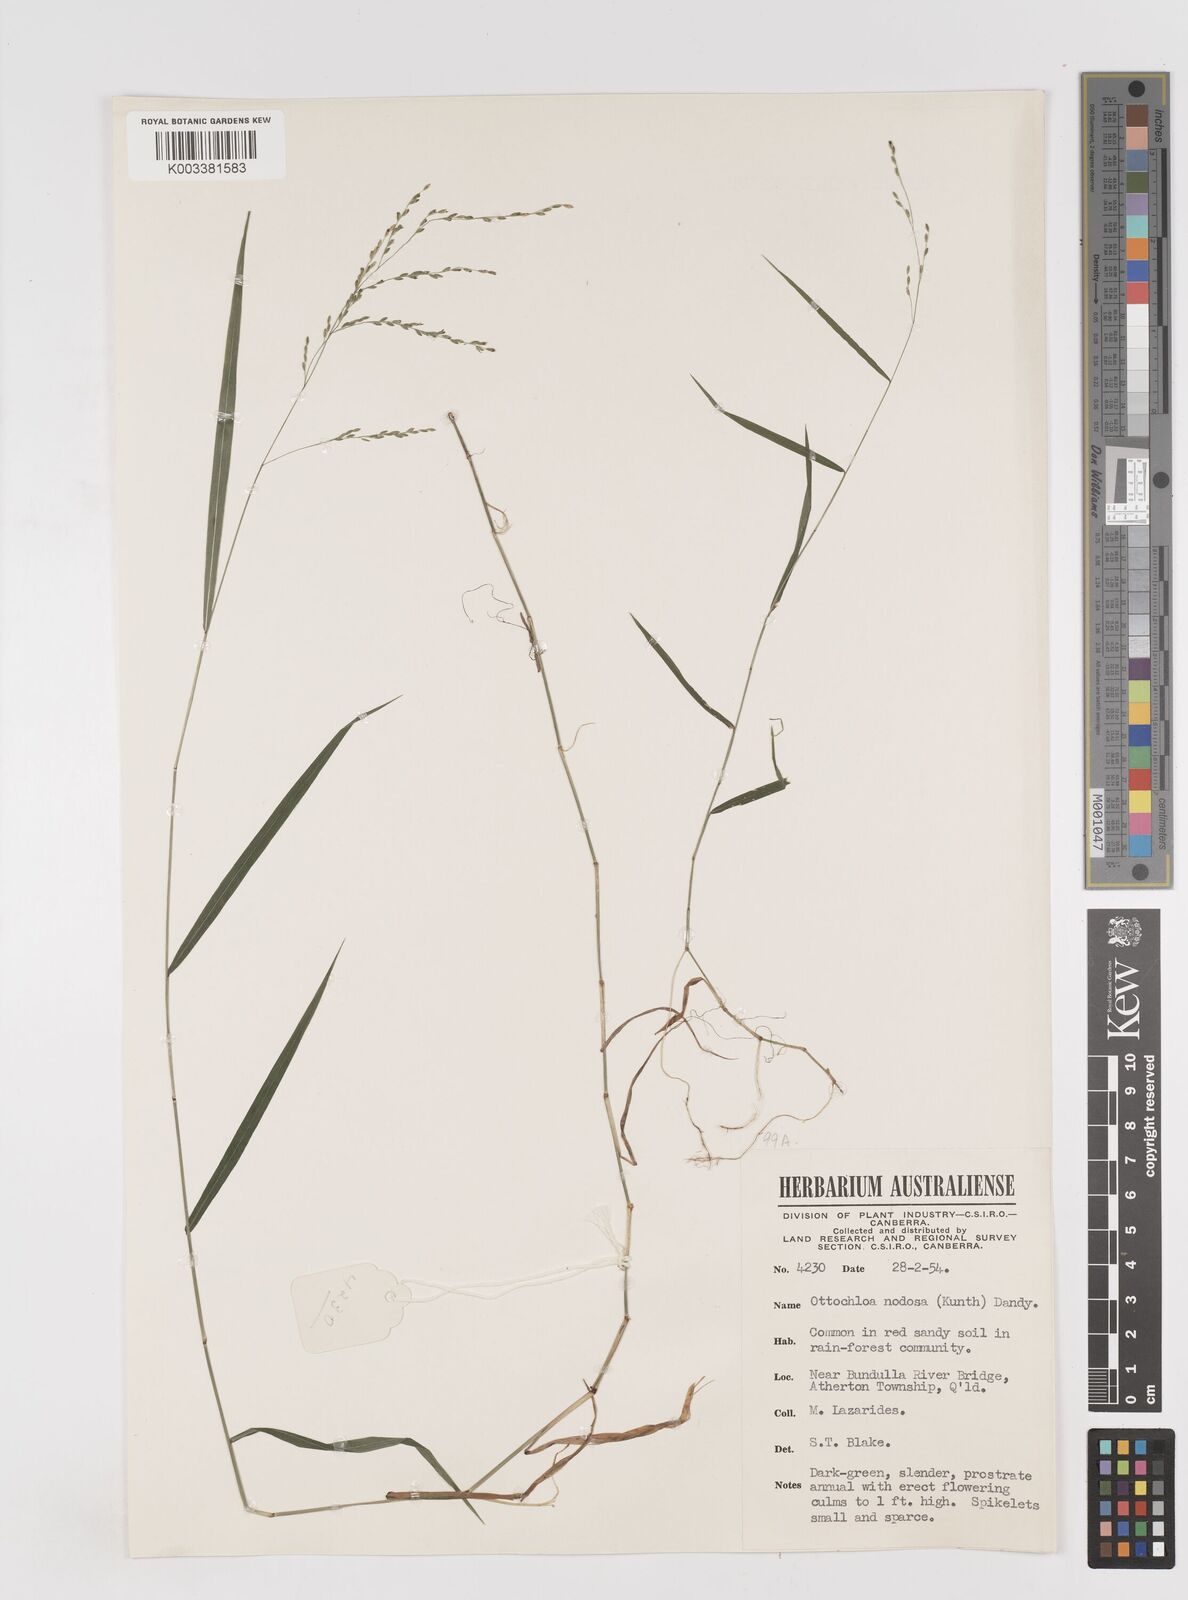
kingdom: Plantae
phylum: Tracheophyta
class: Liliopsida
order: Poales
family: Poaceae
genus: Ottochloa
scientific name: Ottochloa nodosa
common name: Slender-panic grass
